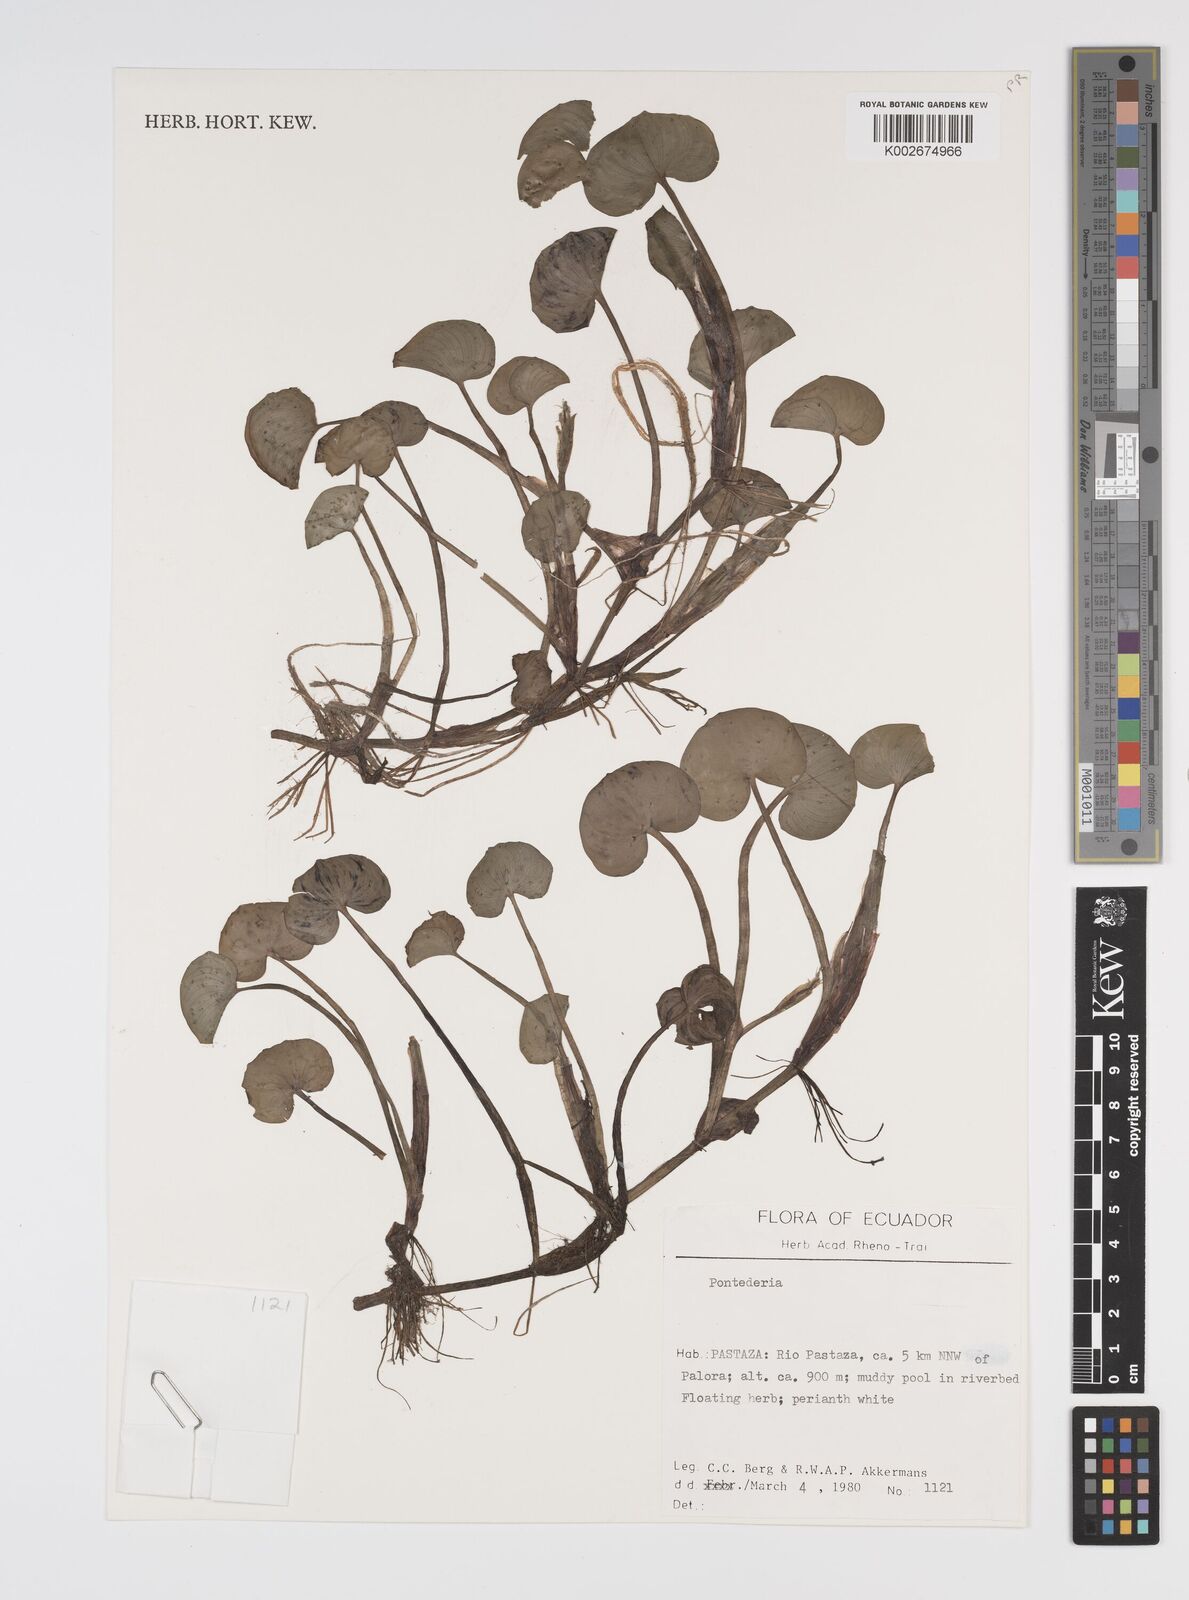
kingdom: Plantae
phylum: Tracheophyta
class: Liliopsida
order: Commelinales
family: Pontederiaceae
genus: Heteranthera
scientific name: Heteranthera reniformis
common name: Kidneyleaf mudplantain
